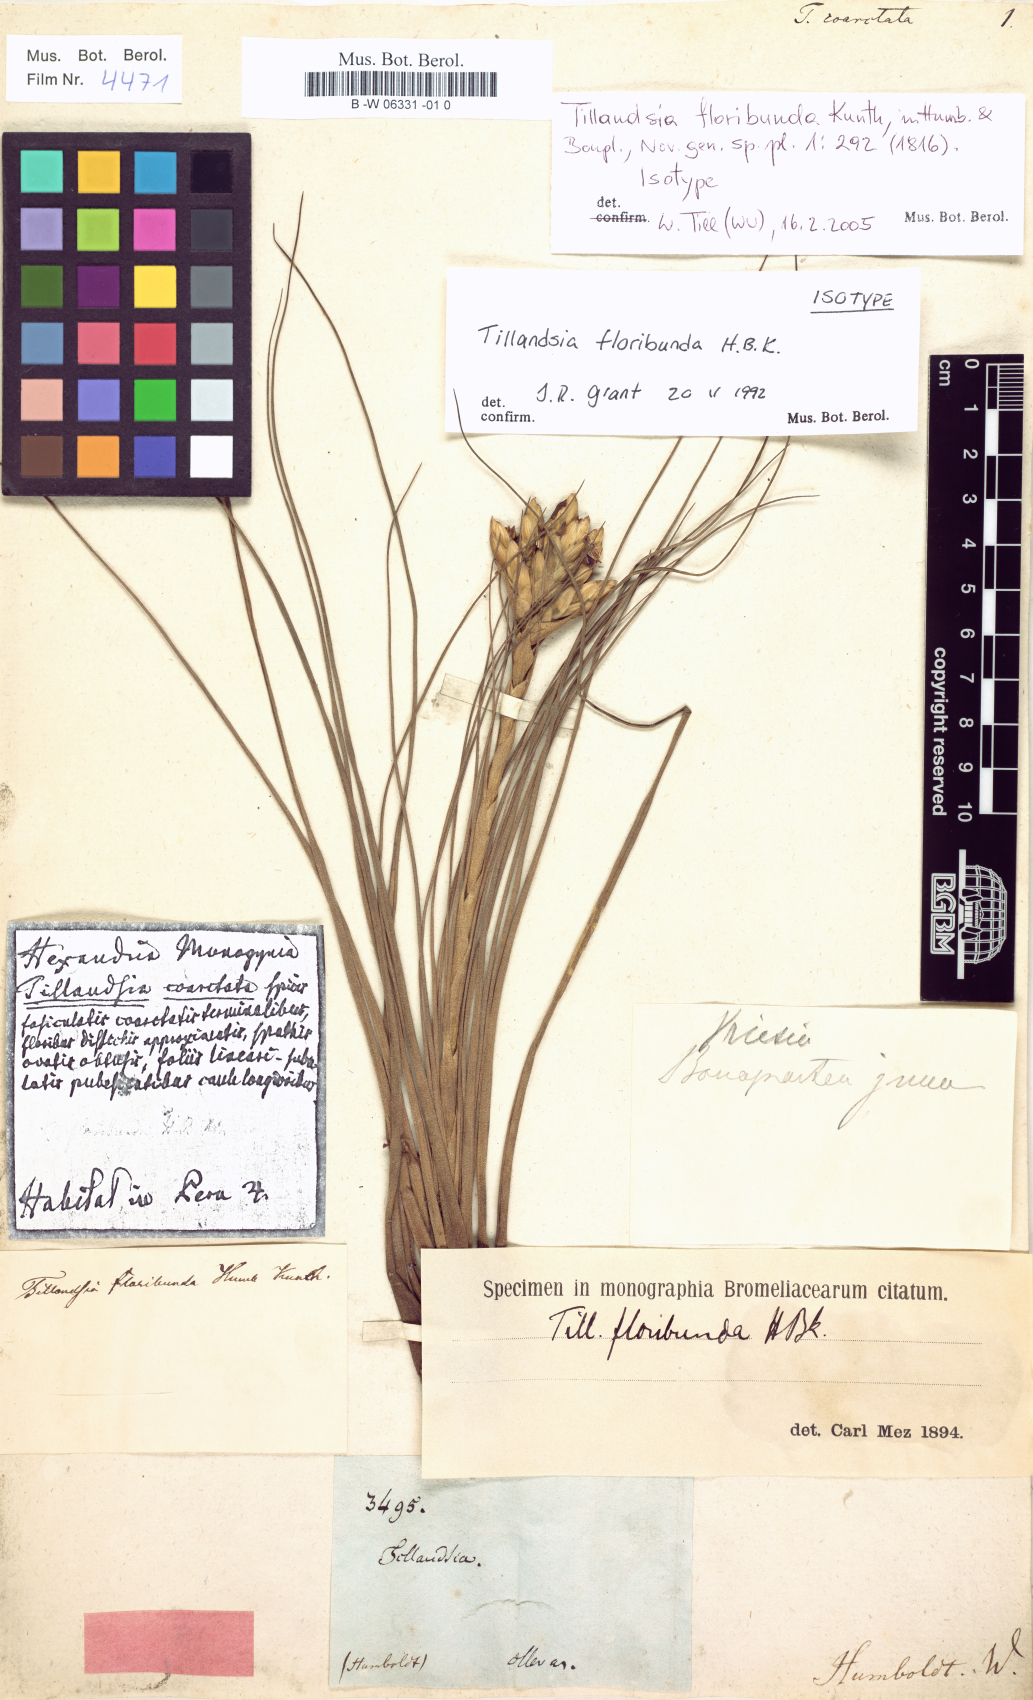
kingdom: Plantae
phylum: Tracheophyta
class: Liliopsida
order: Poales
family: Bromeliaceae
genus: Tillandsia
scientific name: Tillandsia
